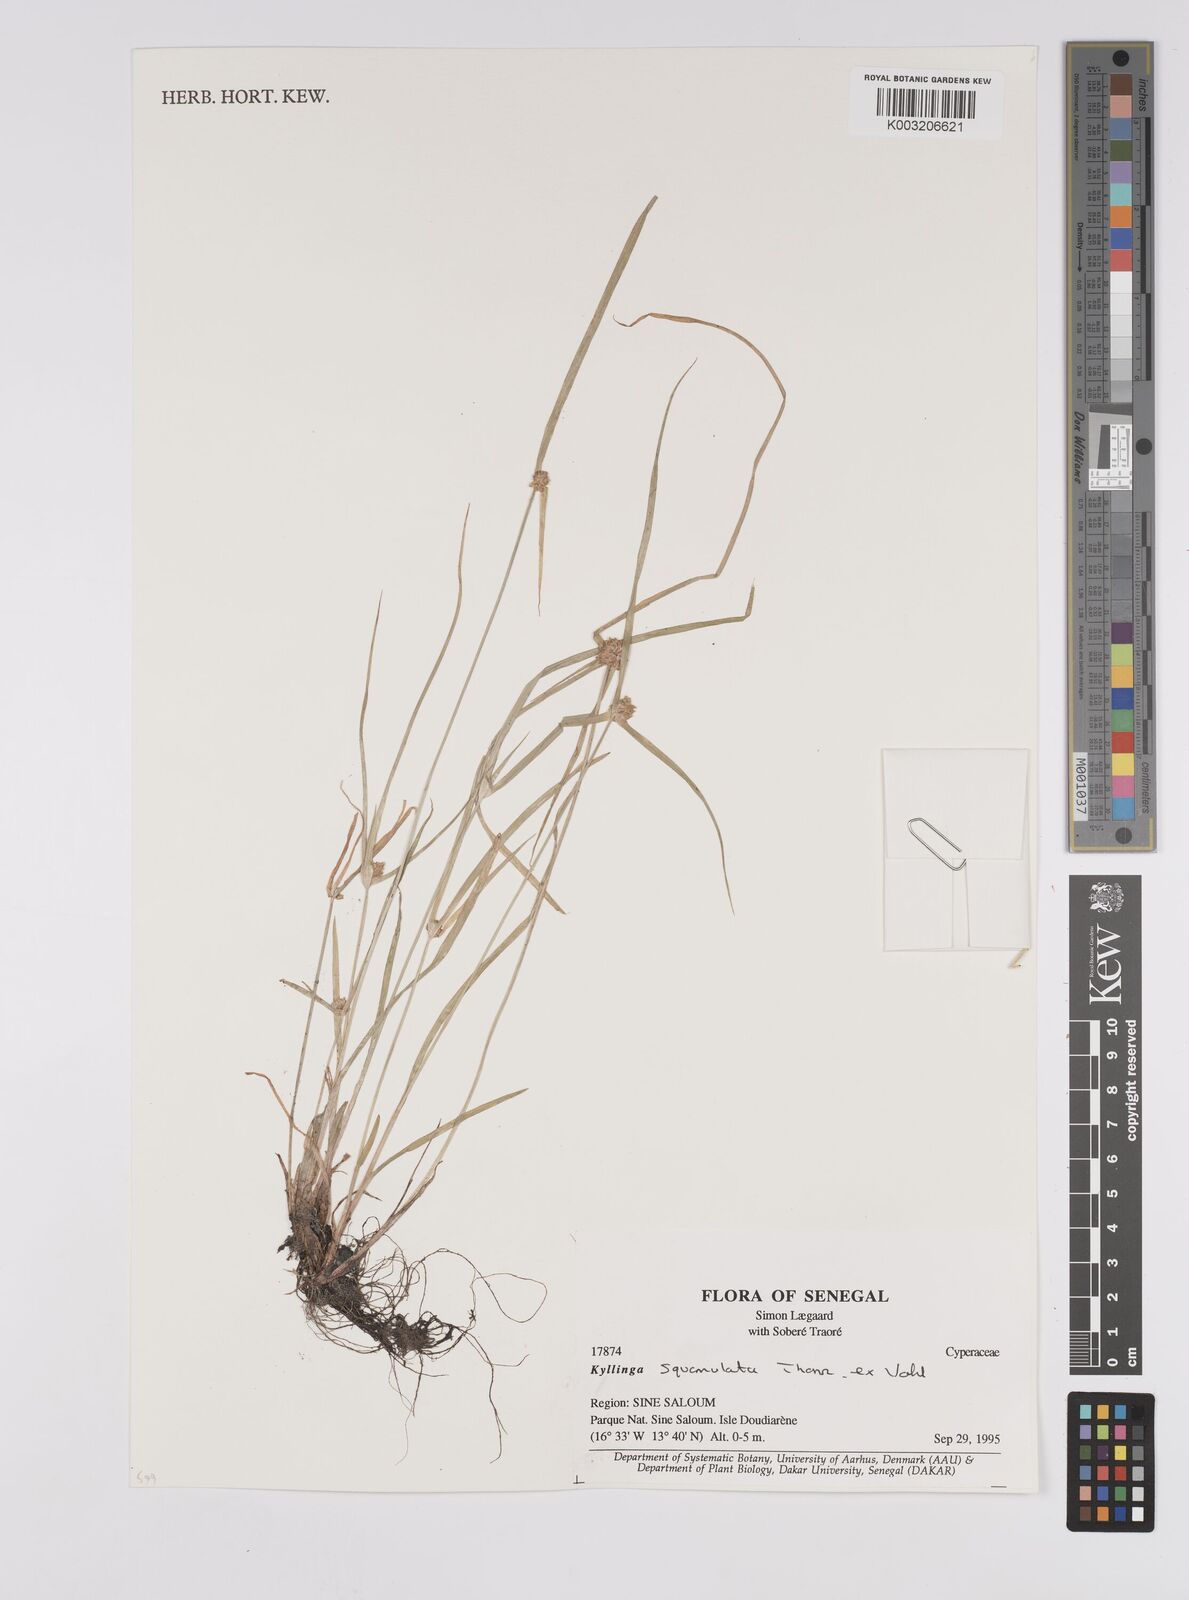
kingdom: Plantae
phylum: Tracheophyta
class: Liliopsida
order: Poales
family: Cyperaceae
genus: Cyperus
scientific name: Cyperus distans
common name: Slender cyperus
